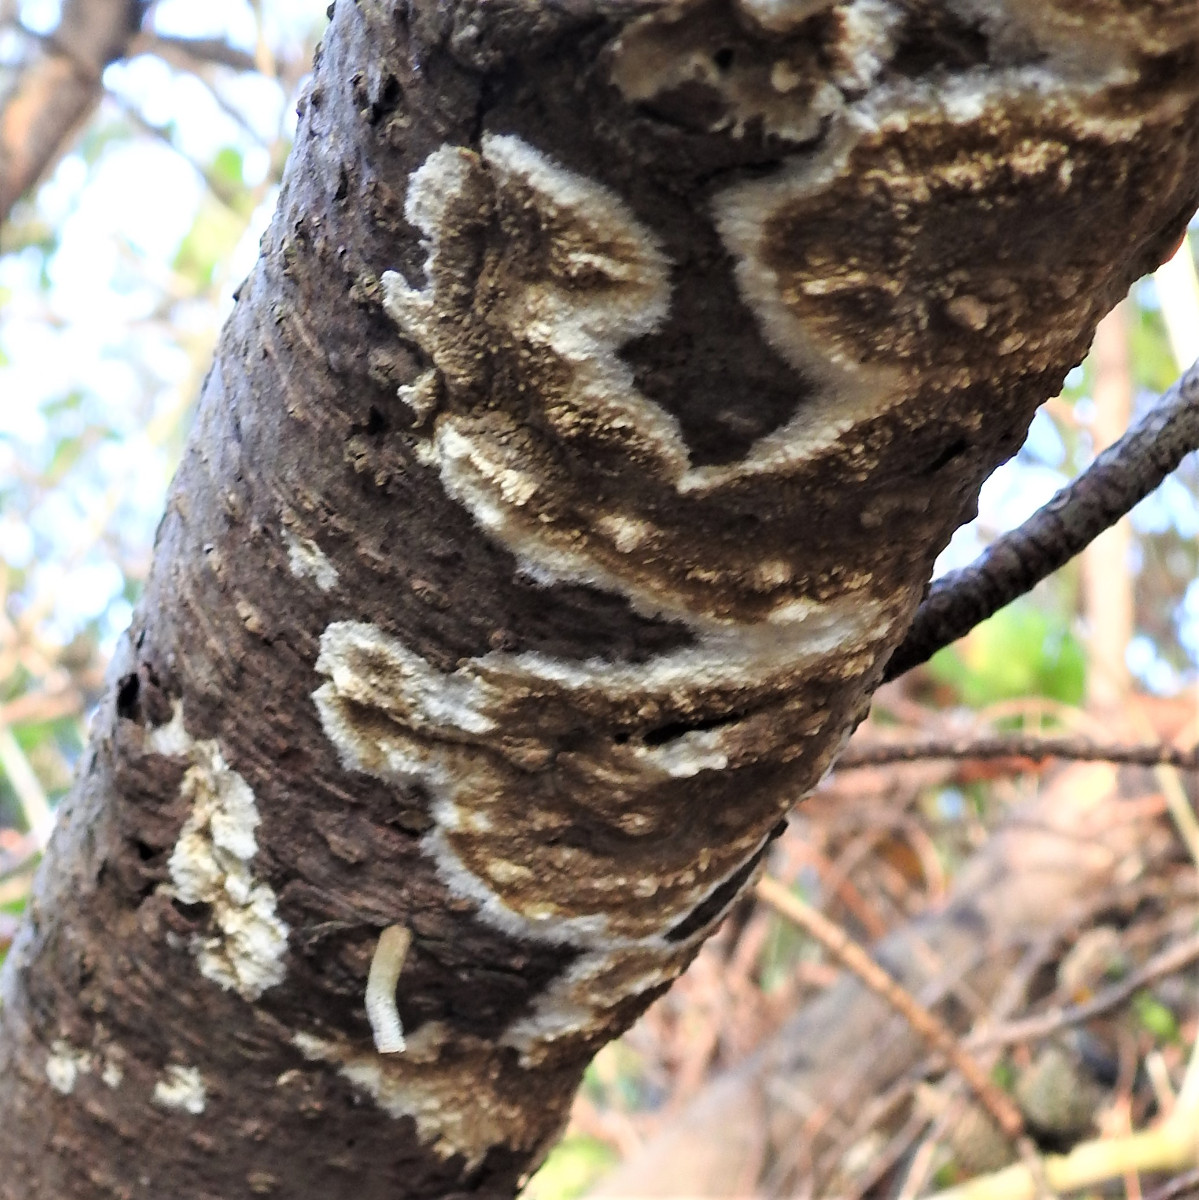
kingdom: Fungi
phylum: Basidiomycota
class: Agaricomycetes
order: Boletales
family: Coniophoraceae
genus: Coniophora
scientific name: Coniophora puteana
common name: gul tømmersvamp
